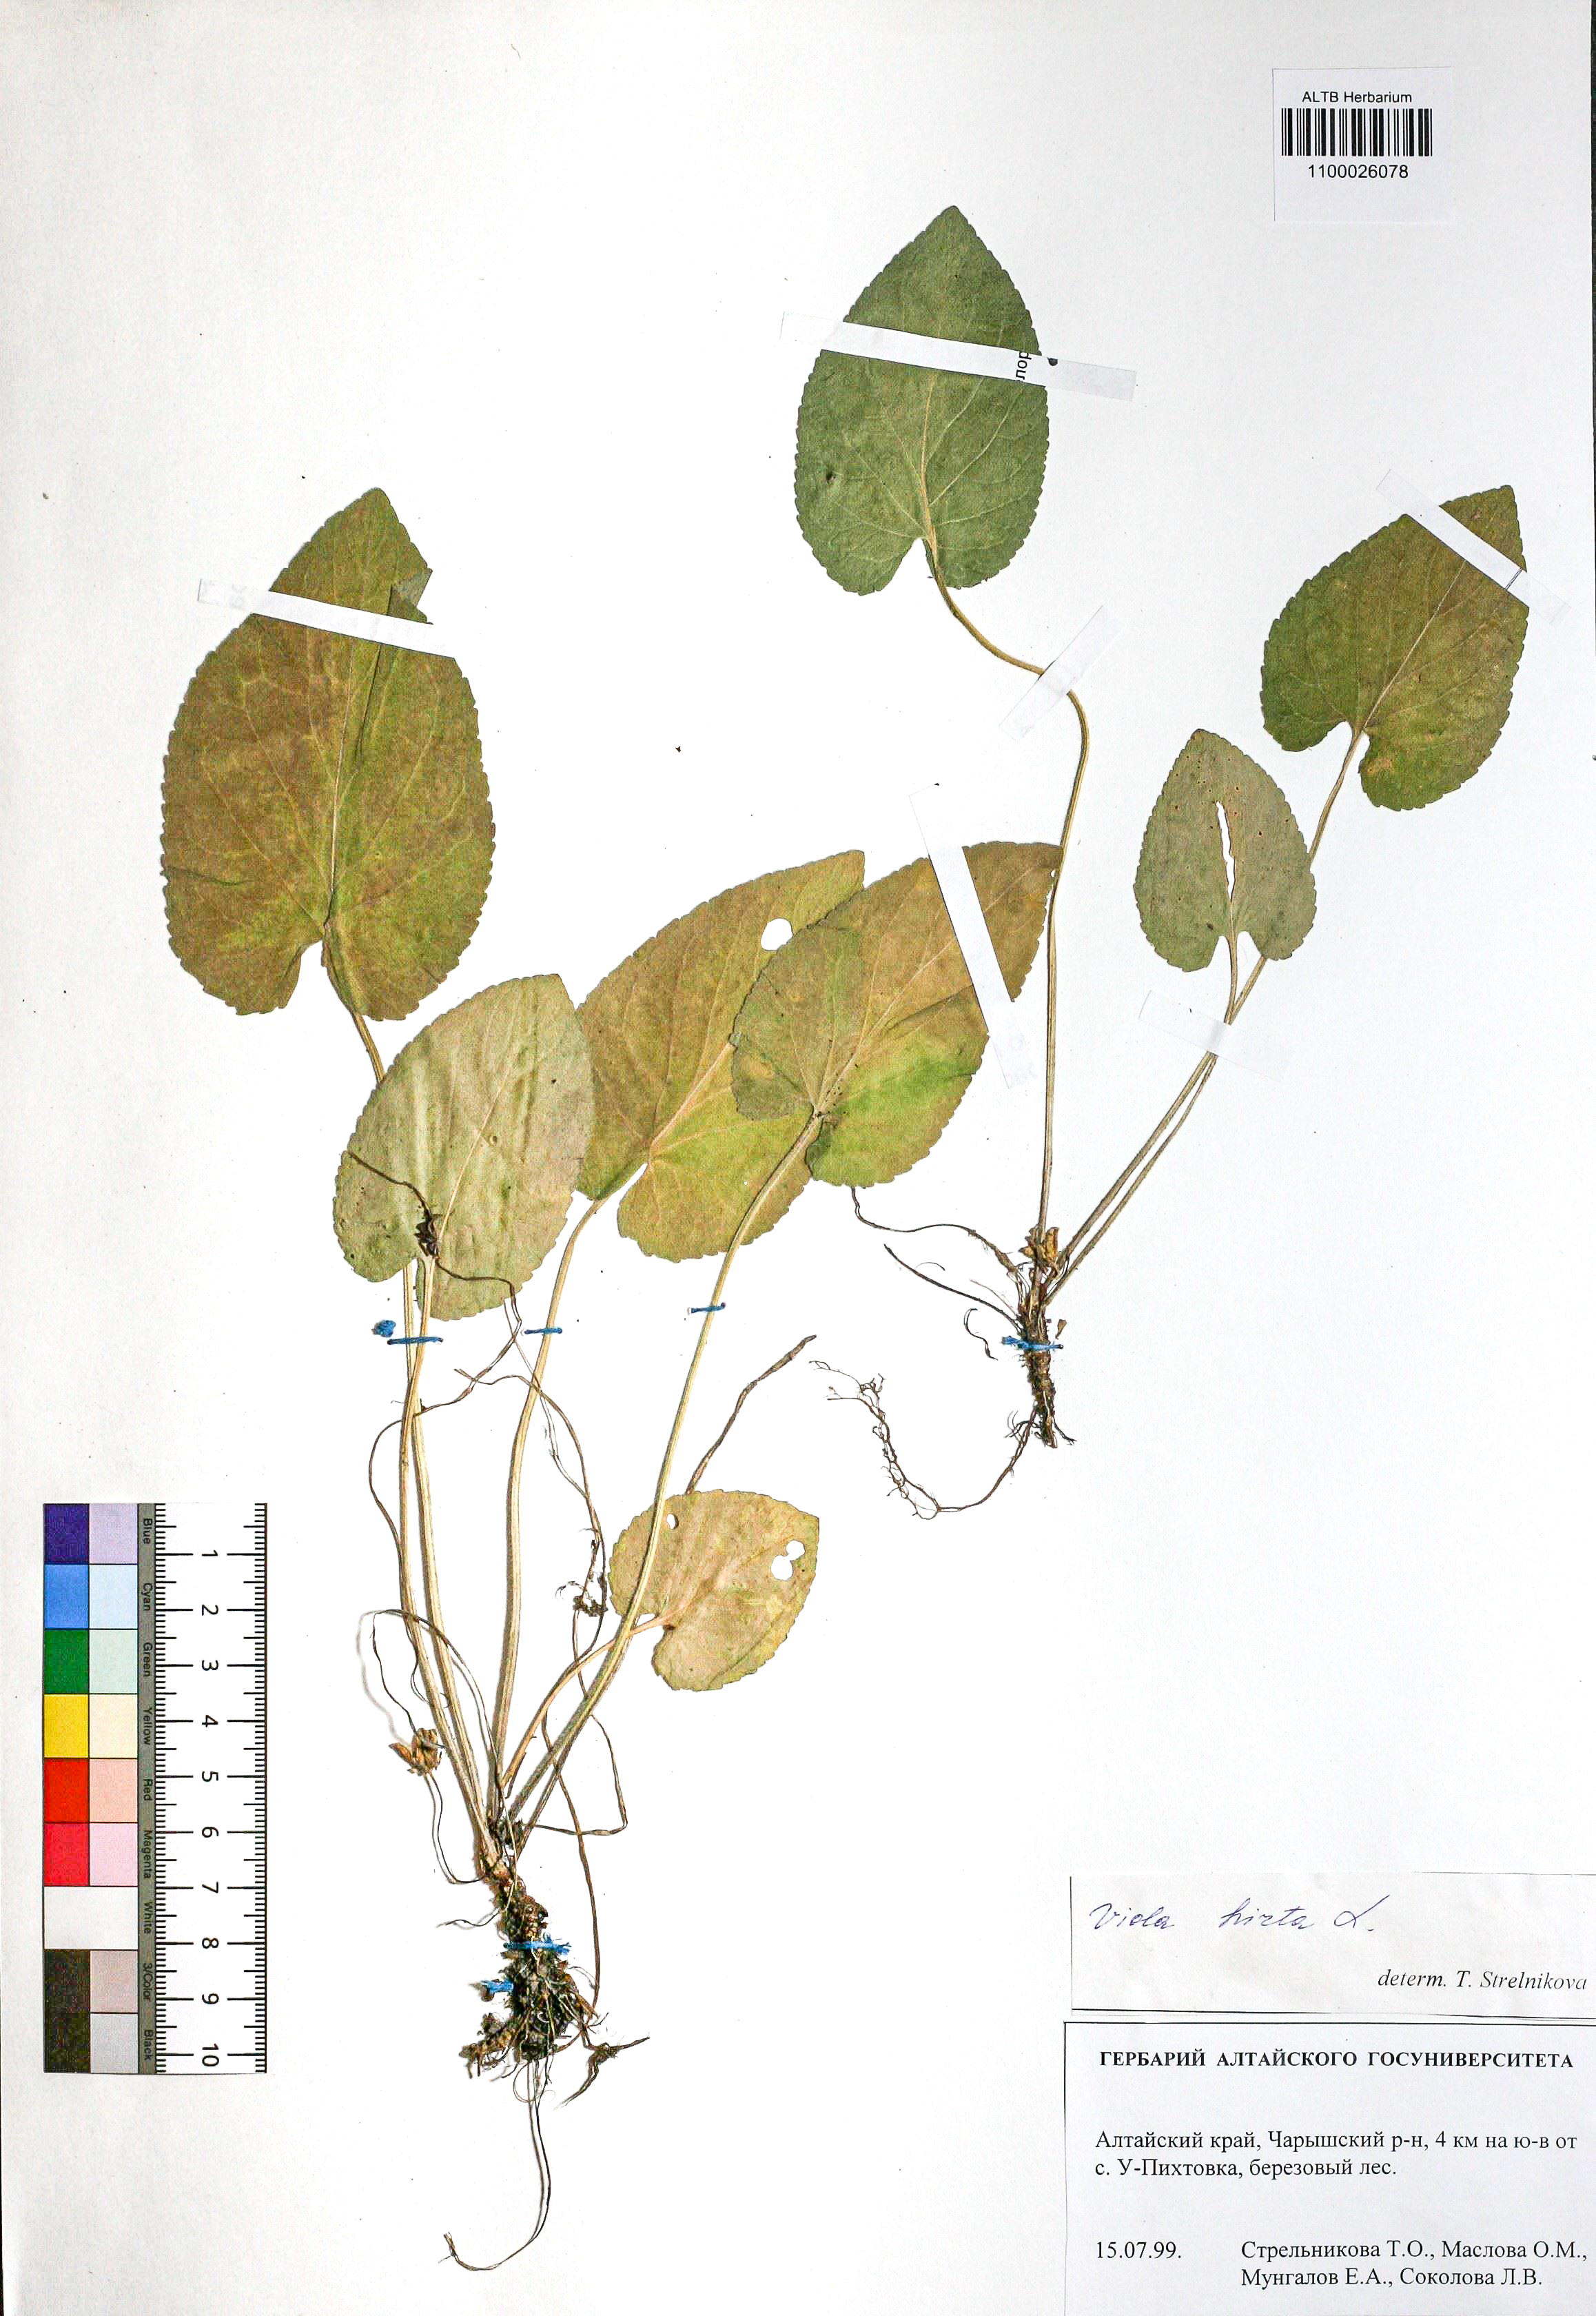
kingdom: Plantae
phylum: Tracheophyta
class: Magnoliopsida
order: Malpighiales
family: Violaceae
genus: Viola
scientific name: Viola hirta
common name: Hairy violet
